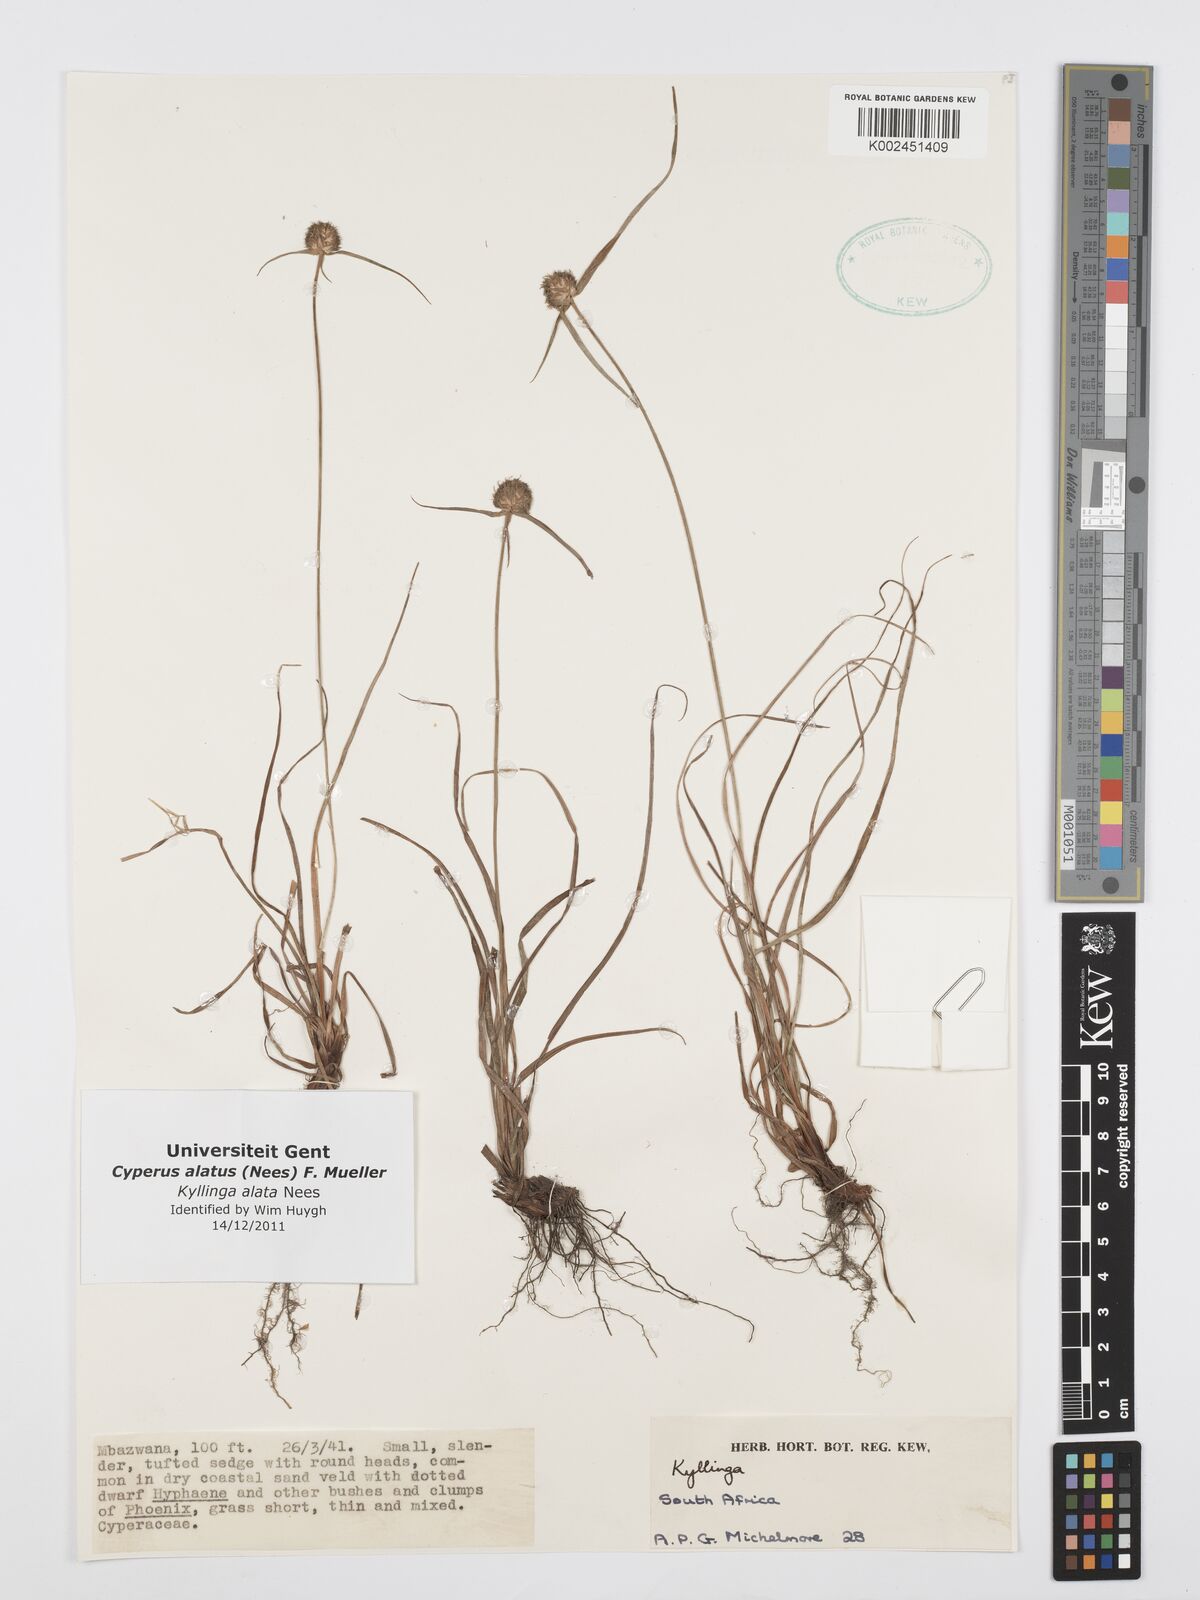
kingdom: Plantae
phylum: Tracheophyta
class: Liliopsida
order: Poales
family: Cyperaceae
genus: Cyperus
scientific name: Cyperus
